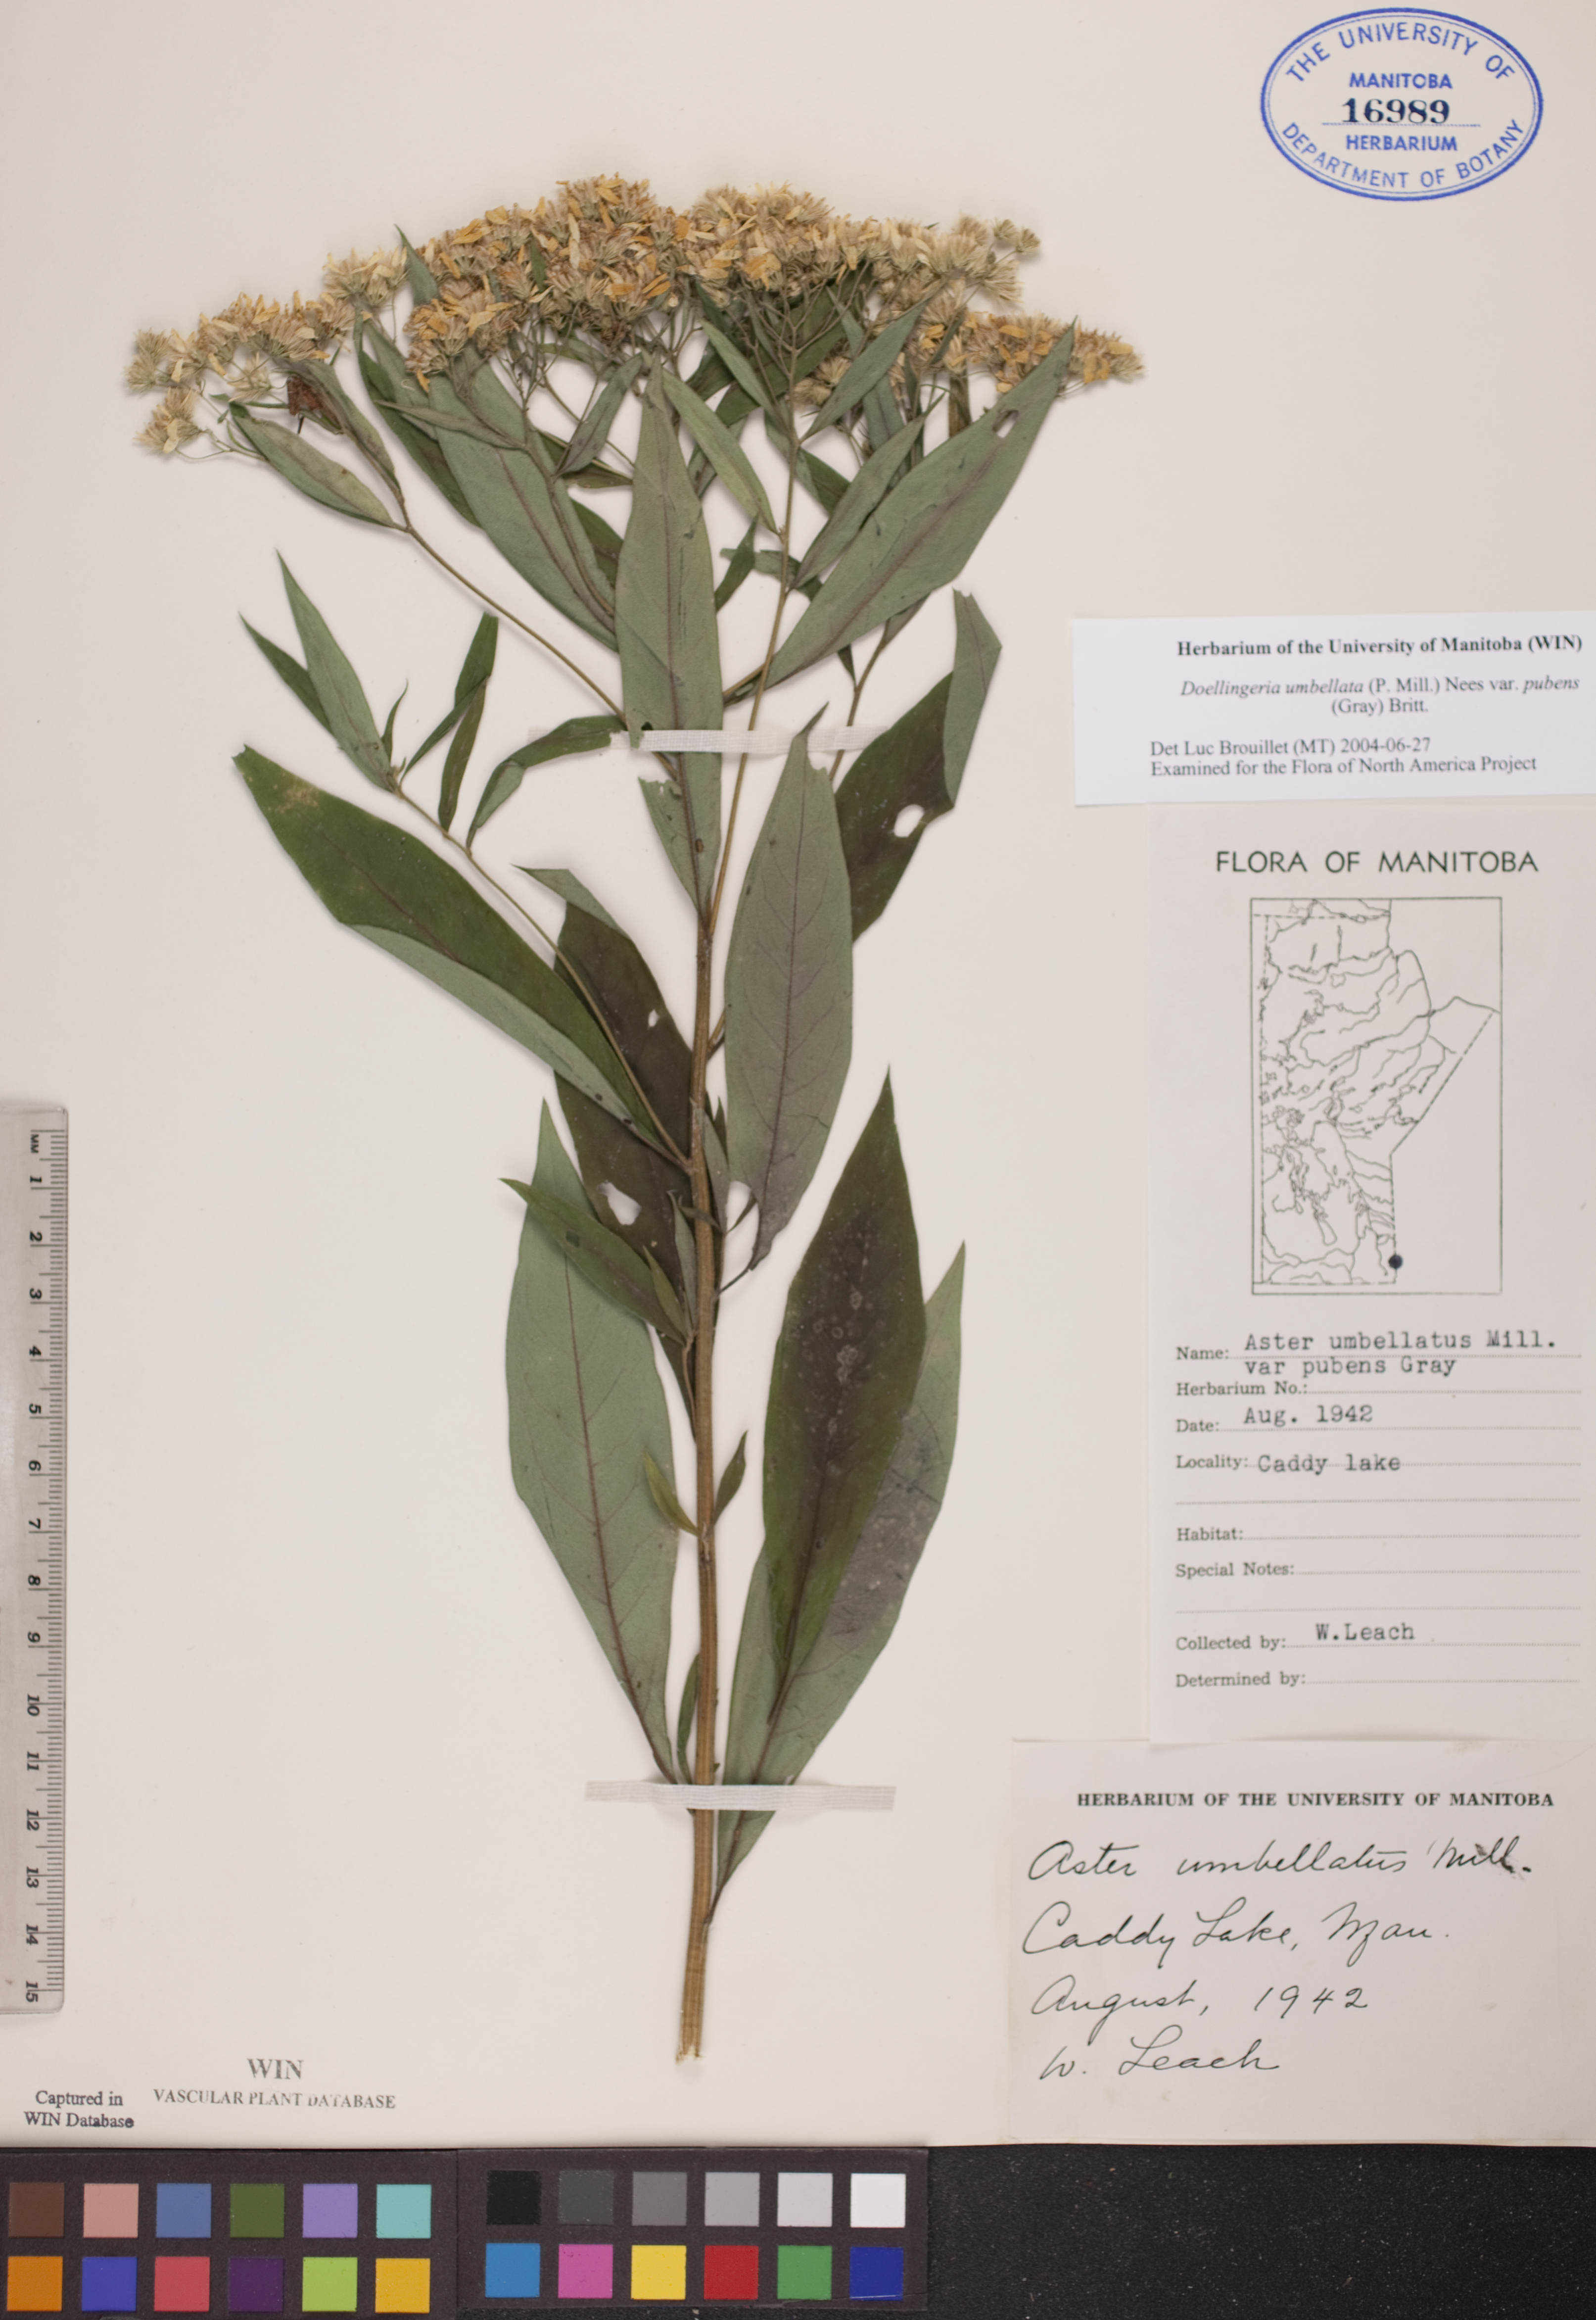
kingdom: Plantae
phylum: Tracheophyta
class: Magnoliopsida
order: Asterales
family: Asteraceae
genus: Doellingeria
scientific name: Doellingeria umbellata
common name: Flat-top white aster
